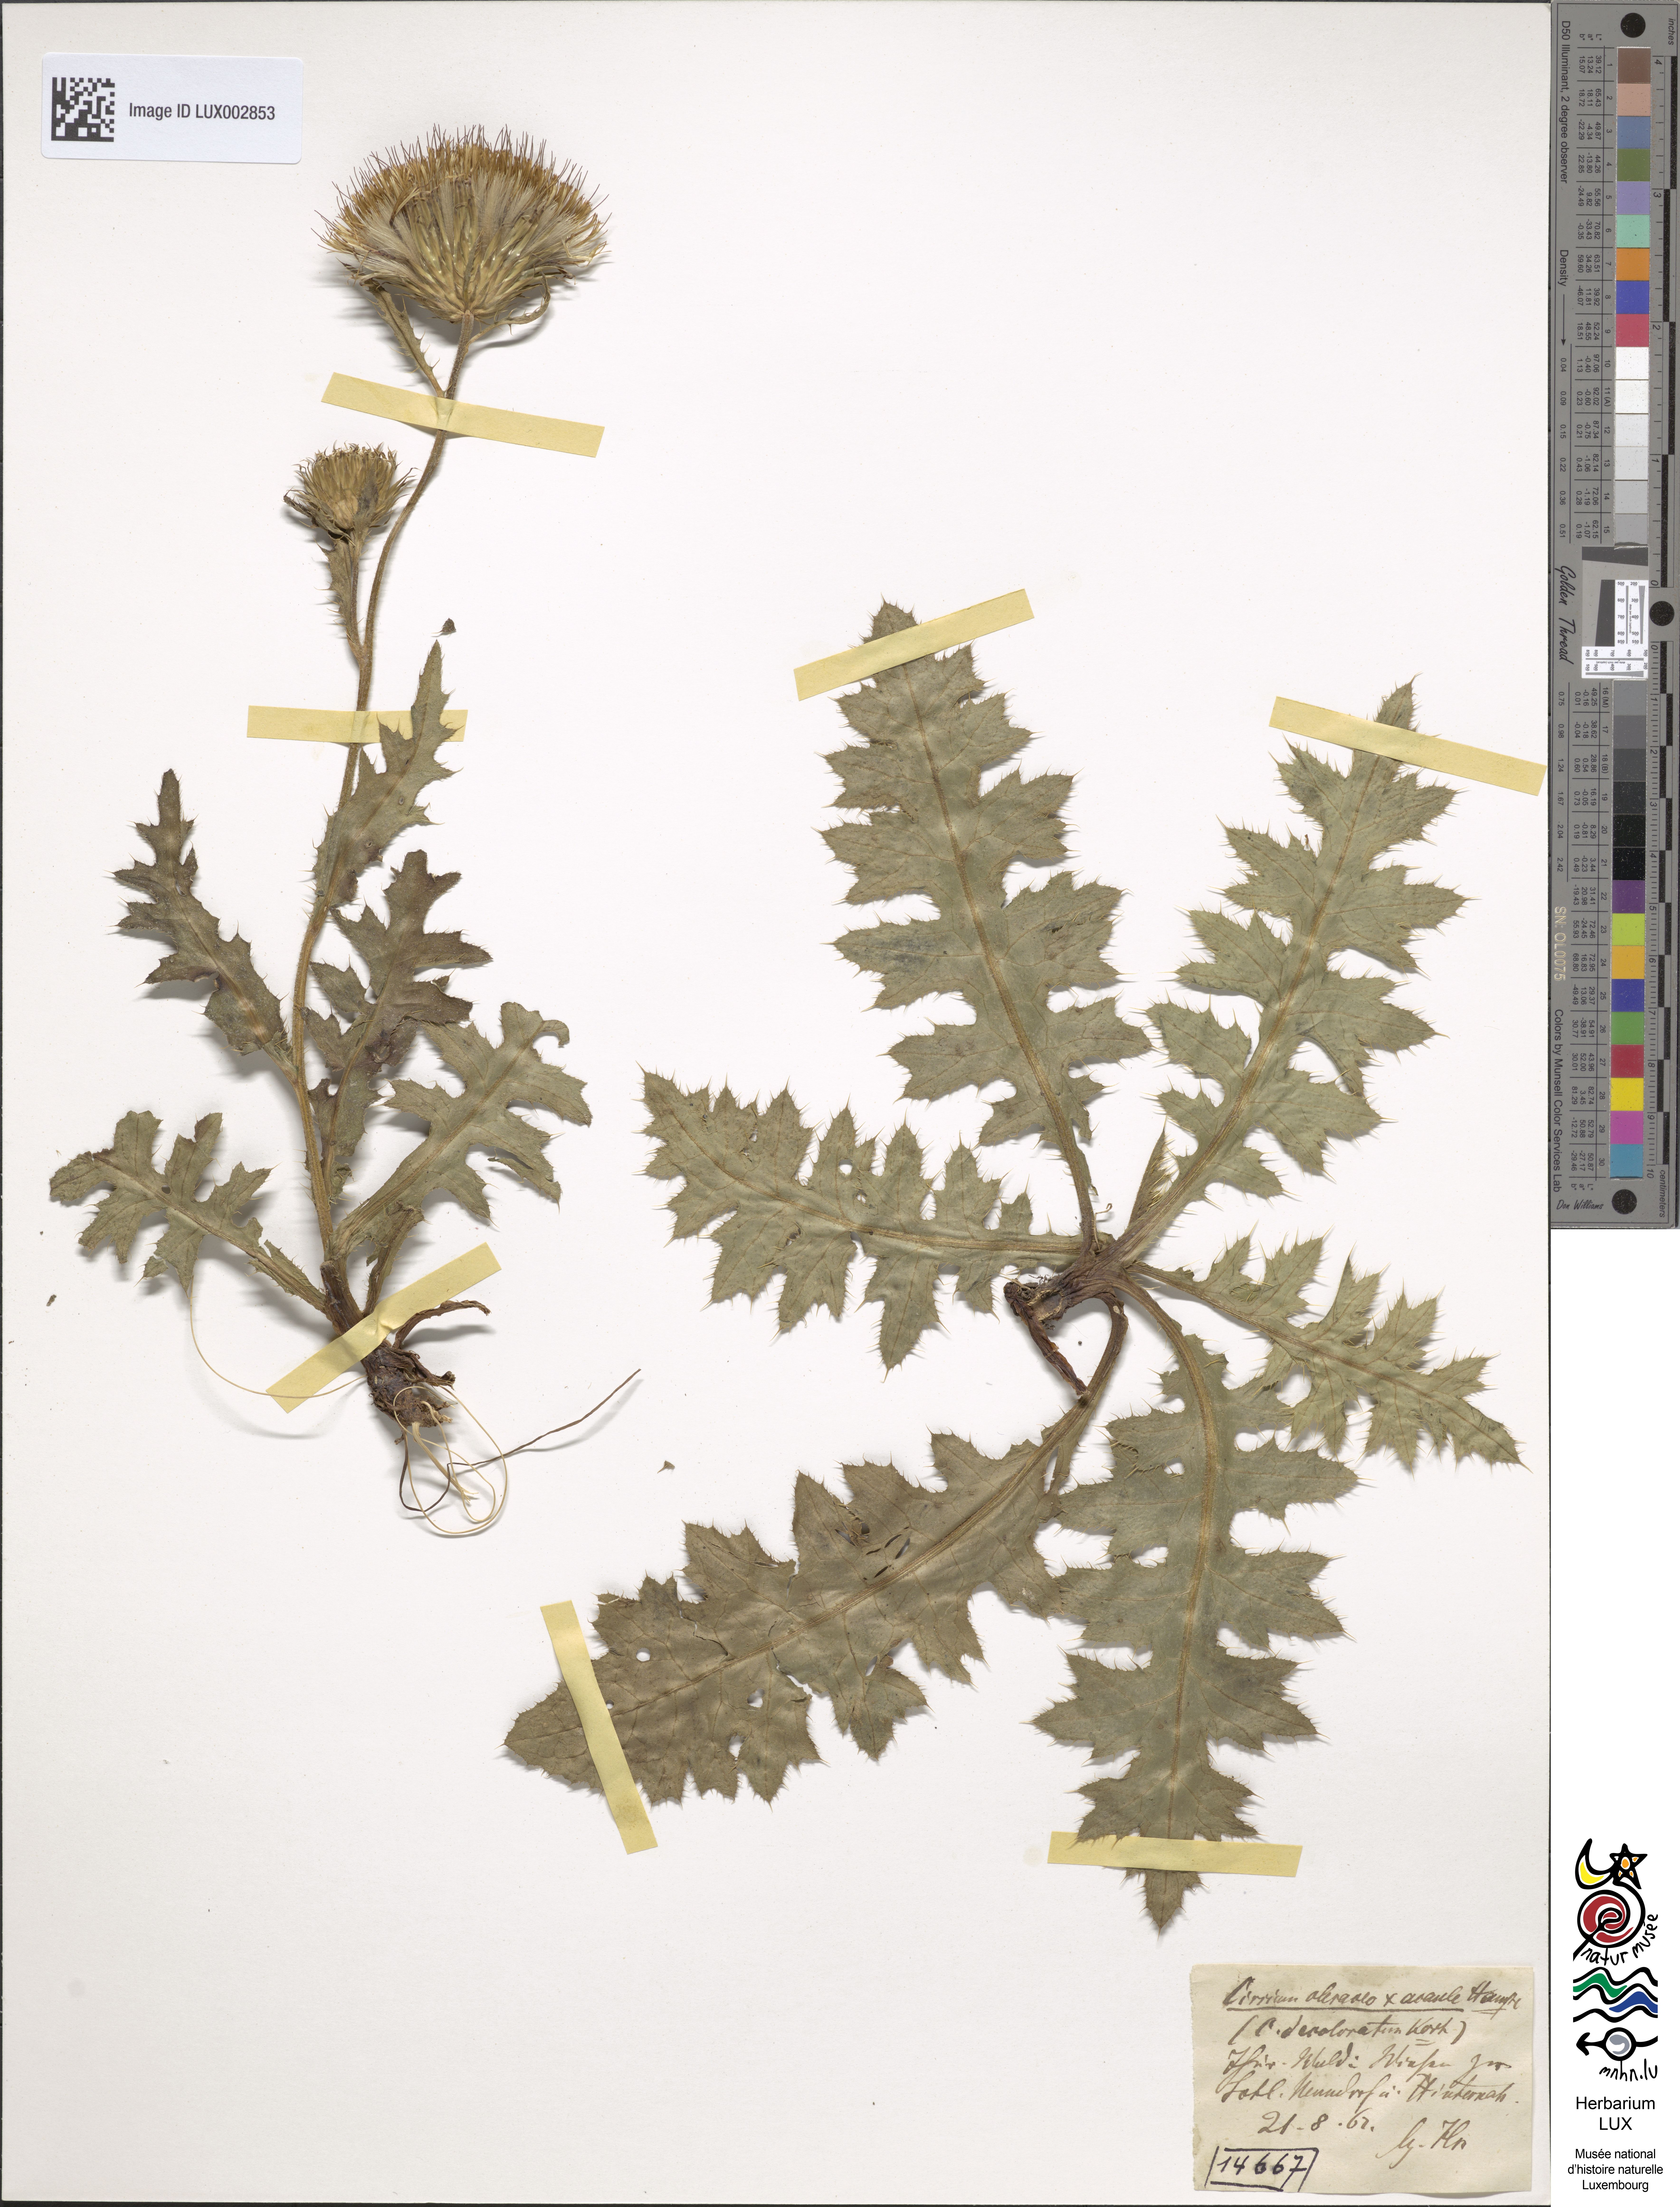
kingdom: Plantae
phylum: Tracheophyta
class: Magnoliopsida
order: Asterales
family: Asteraceae
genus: Cirsium
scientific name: Cirsium rigens
